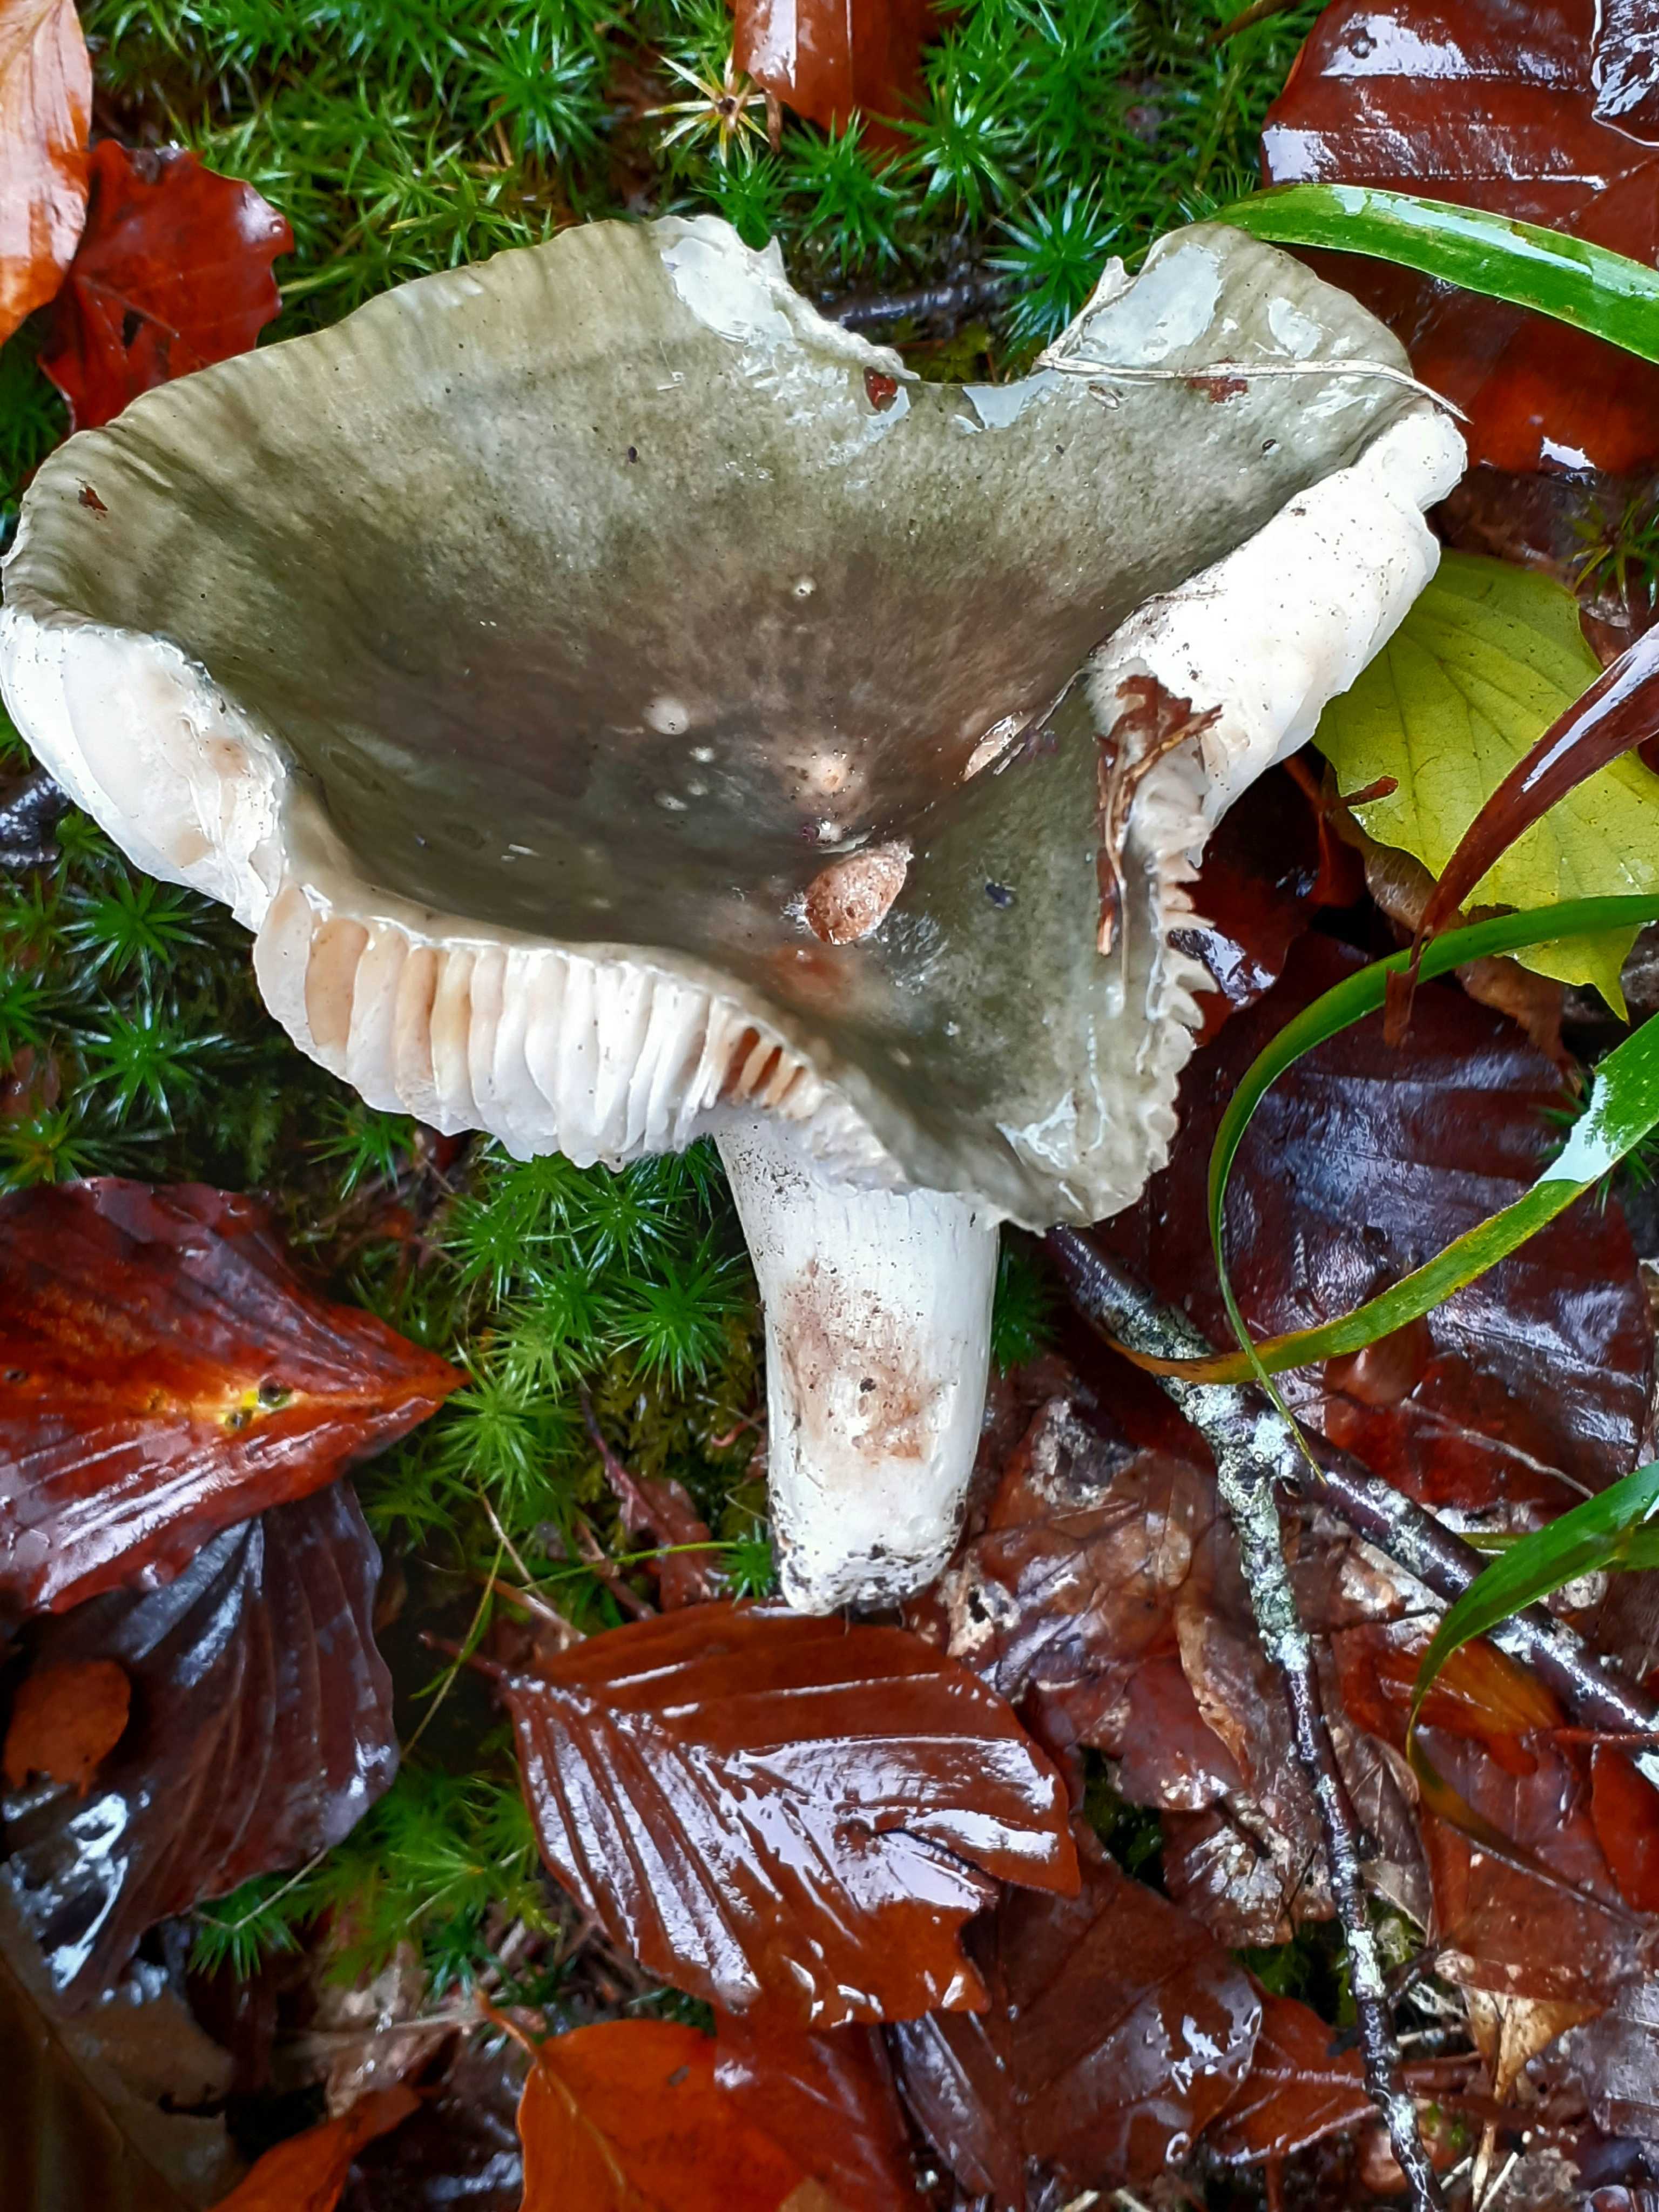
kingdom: Fungi
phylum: Basidiomycota
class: Agaricomycetes
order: Russulales
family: Russulaceae
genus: Russula
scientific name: Russula heterophylla
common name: gaffelbladet skørhat
